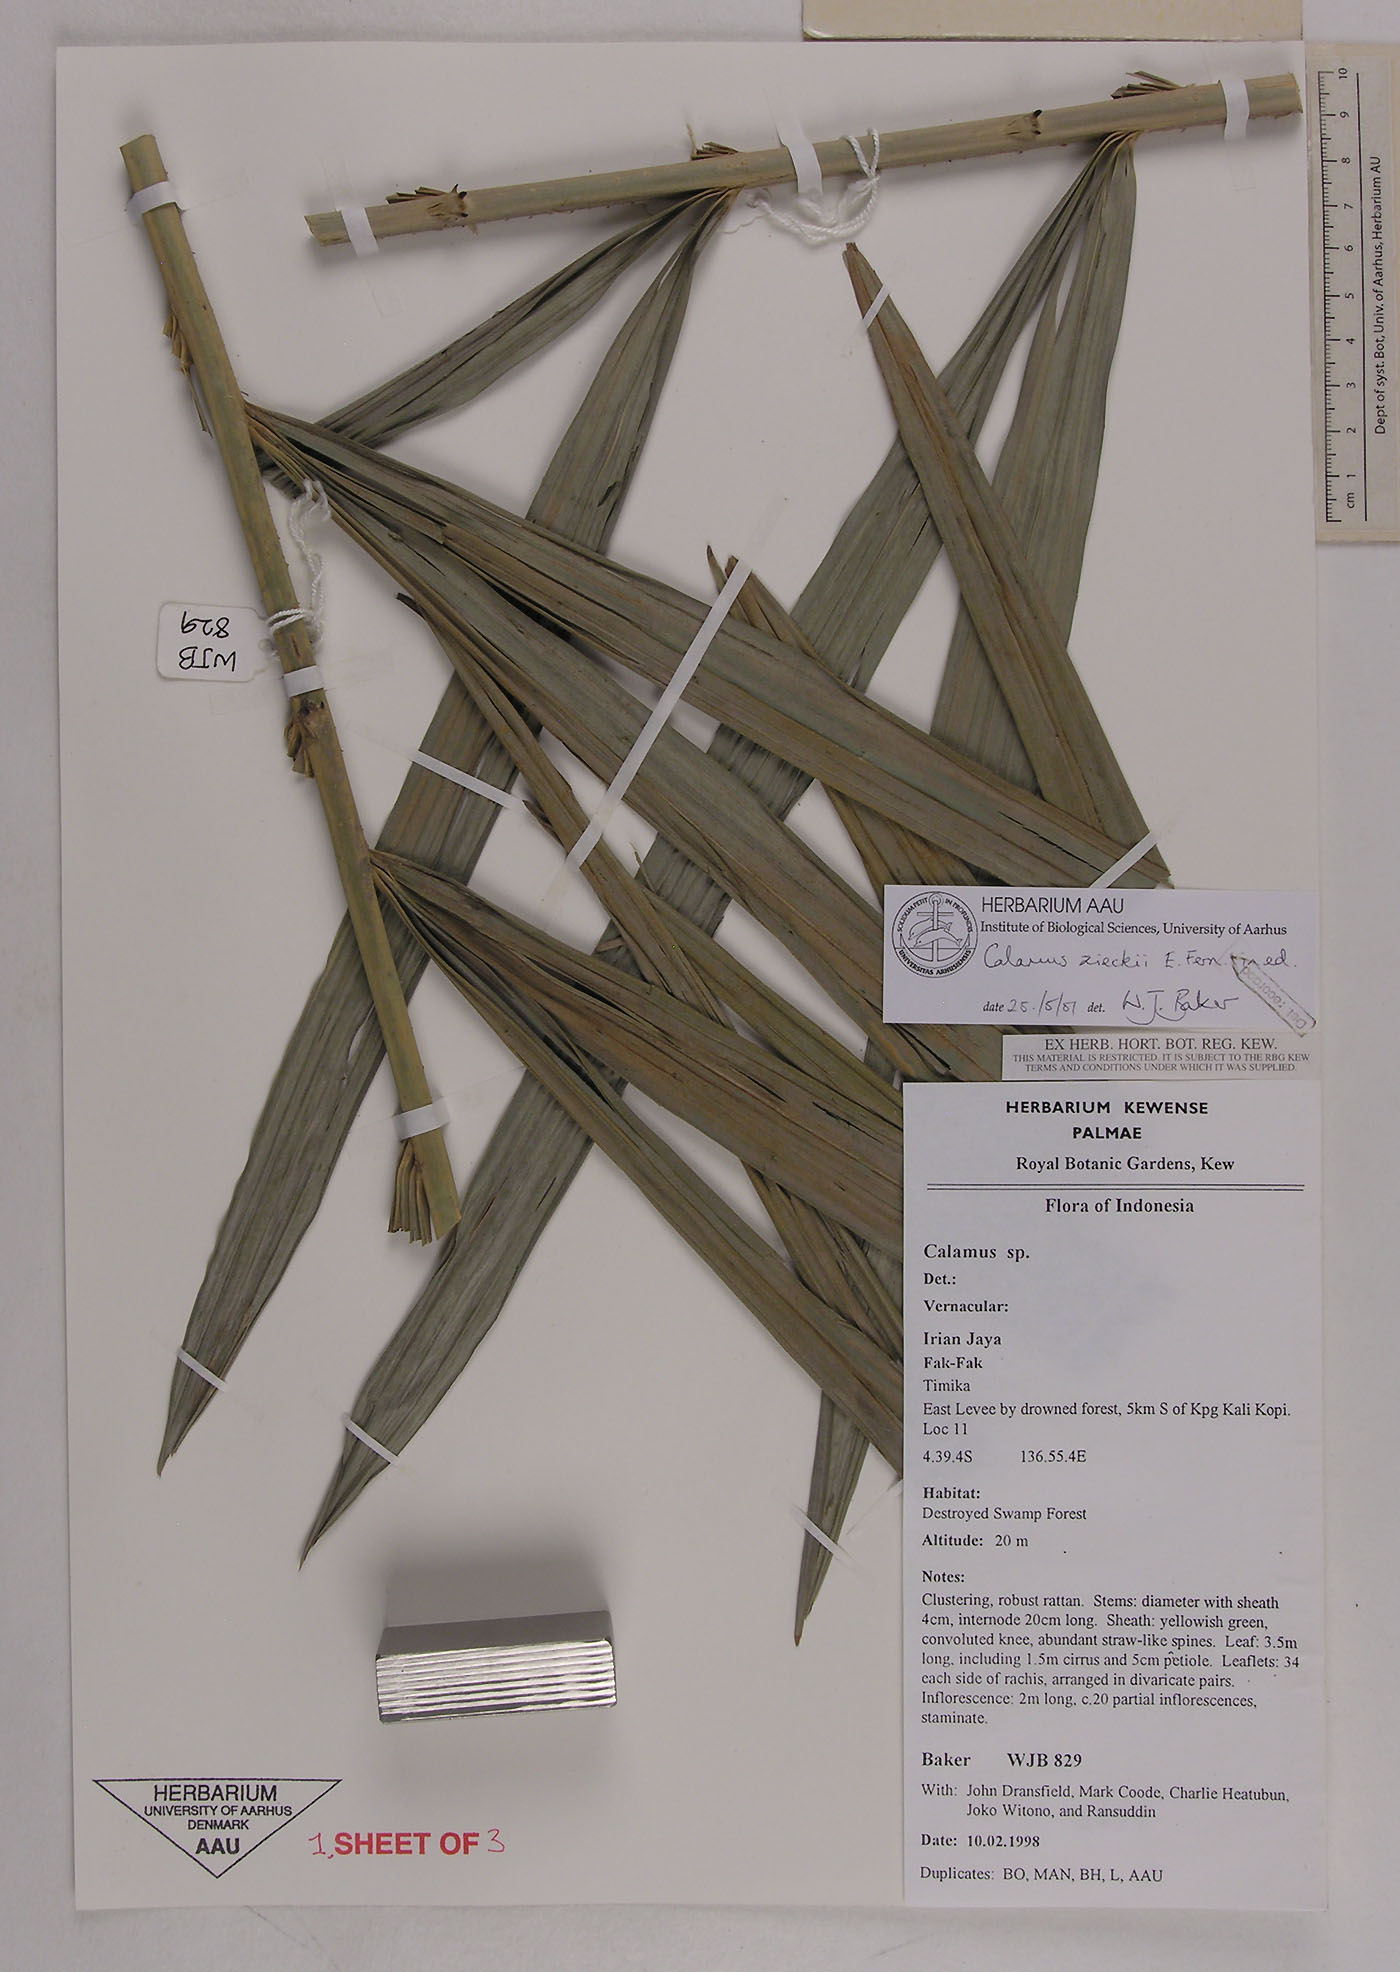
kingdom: Plantae
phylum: Tracheophyta
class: Liliopsida
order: Arecales
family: Arecaceae
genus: Calamus
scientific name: Calamus zieckii
